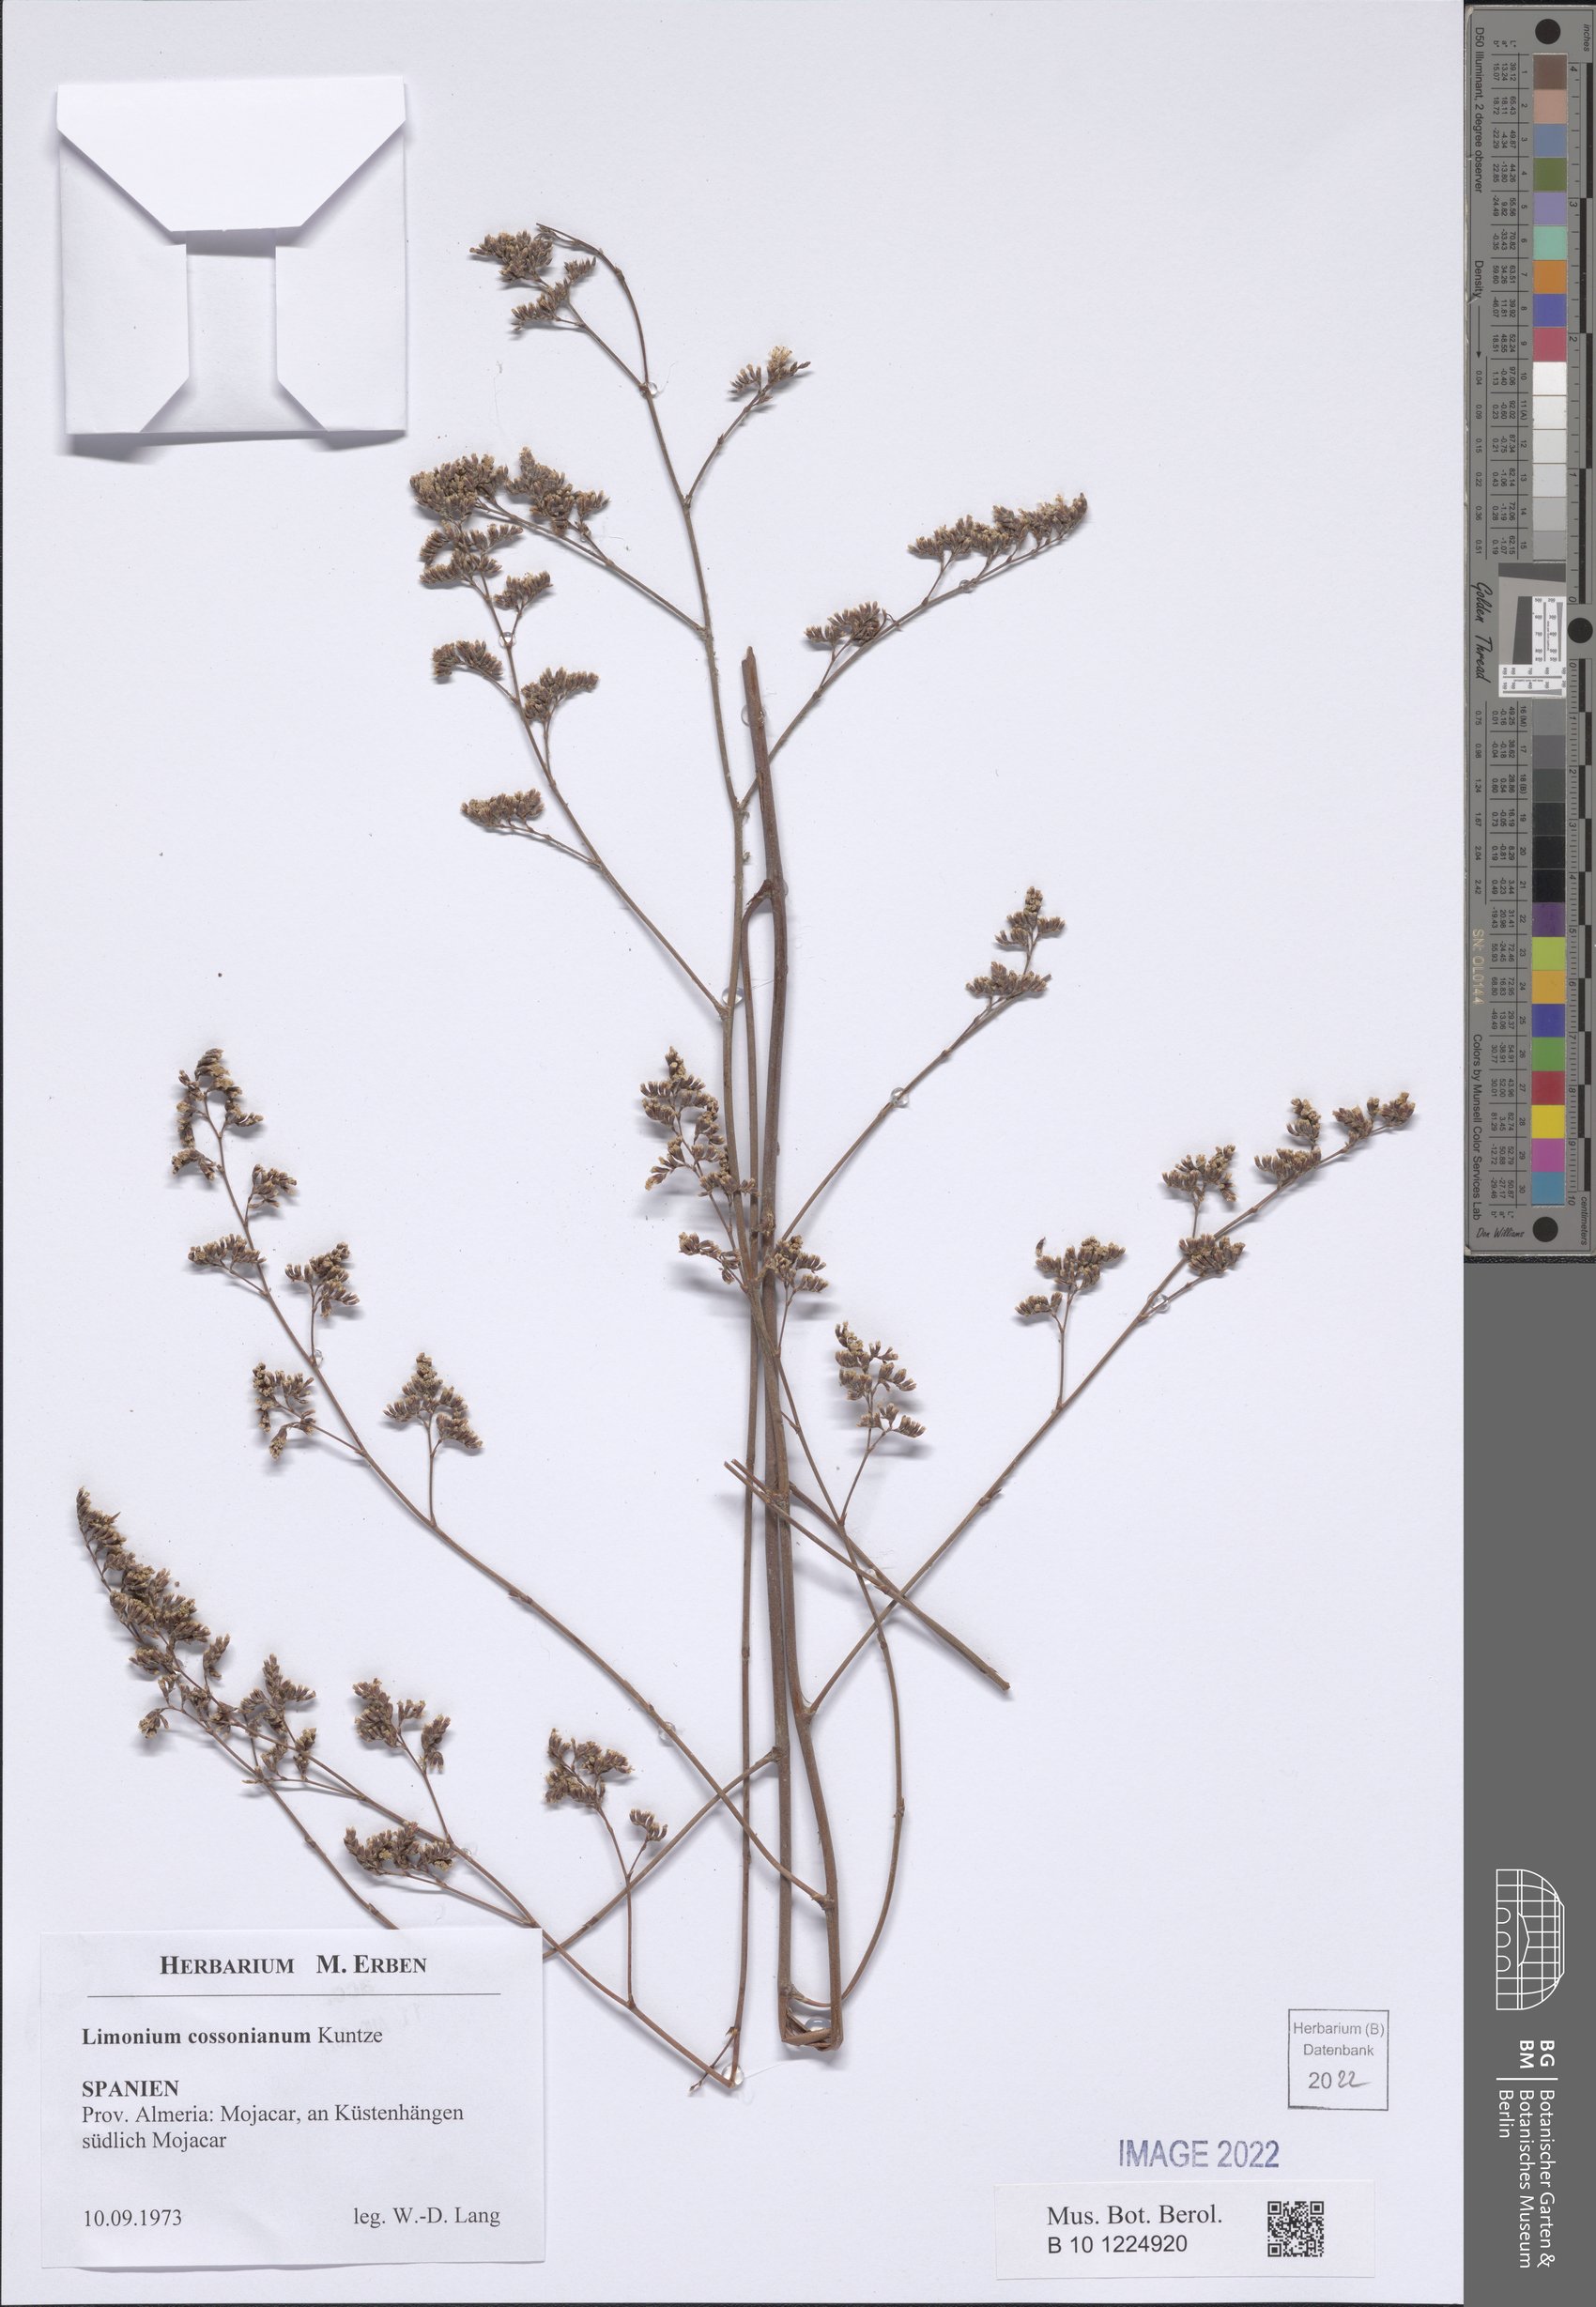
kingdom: Plantae
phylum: Tracheophyta
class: Magnoliopsida
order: Caryophyllales
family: Plumbaginaceae
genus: Limonium
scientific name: Limonium cossonianum
